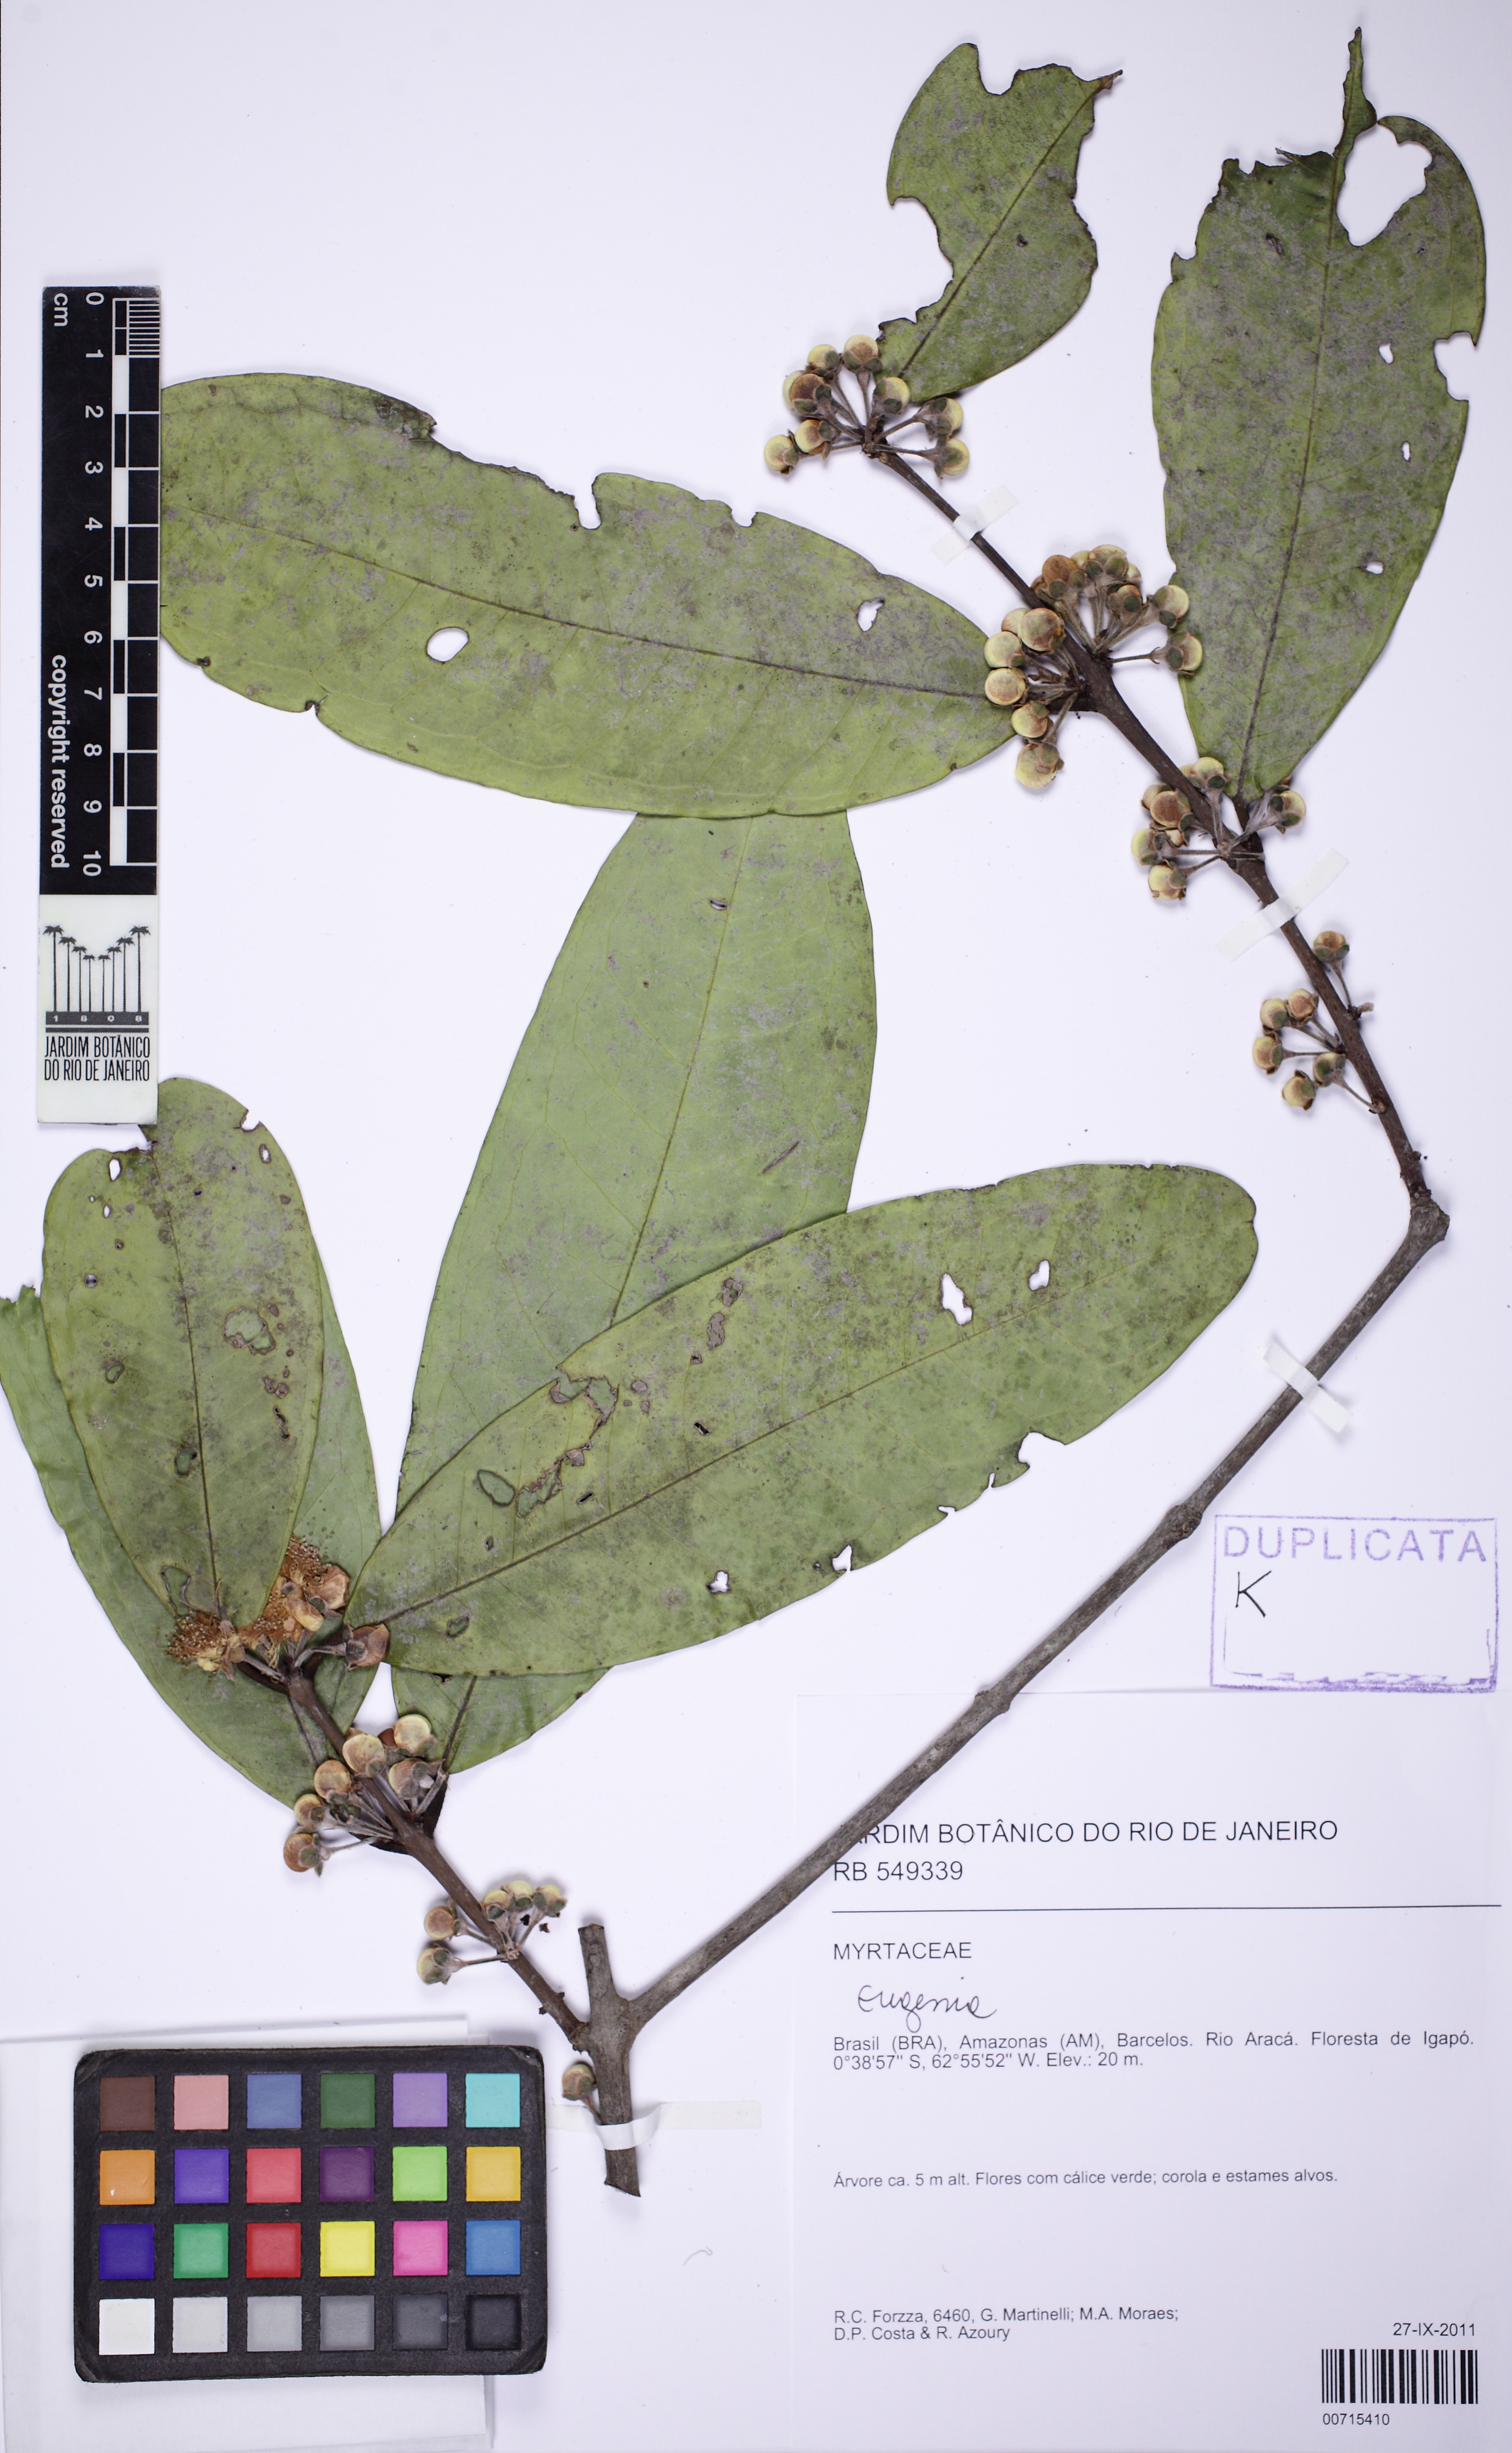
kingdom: Plantae
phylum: Tracheophyta
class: Magnoliopsida
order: Myrtales
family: Myrtaceae
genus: Eugenia
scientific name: Eugenia gomesiana
